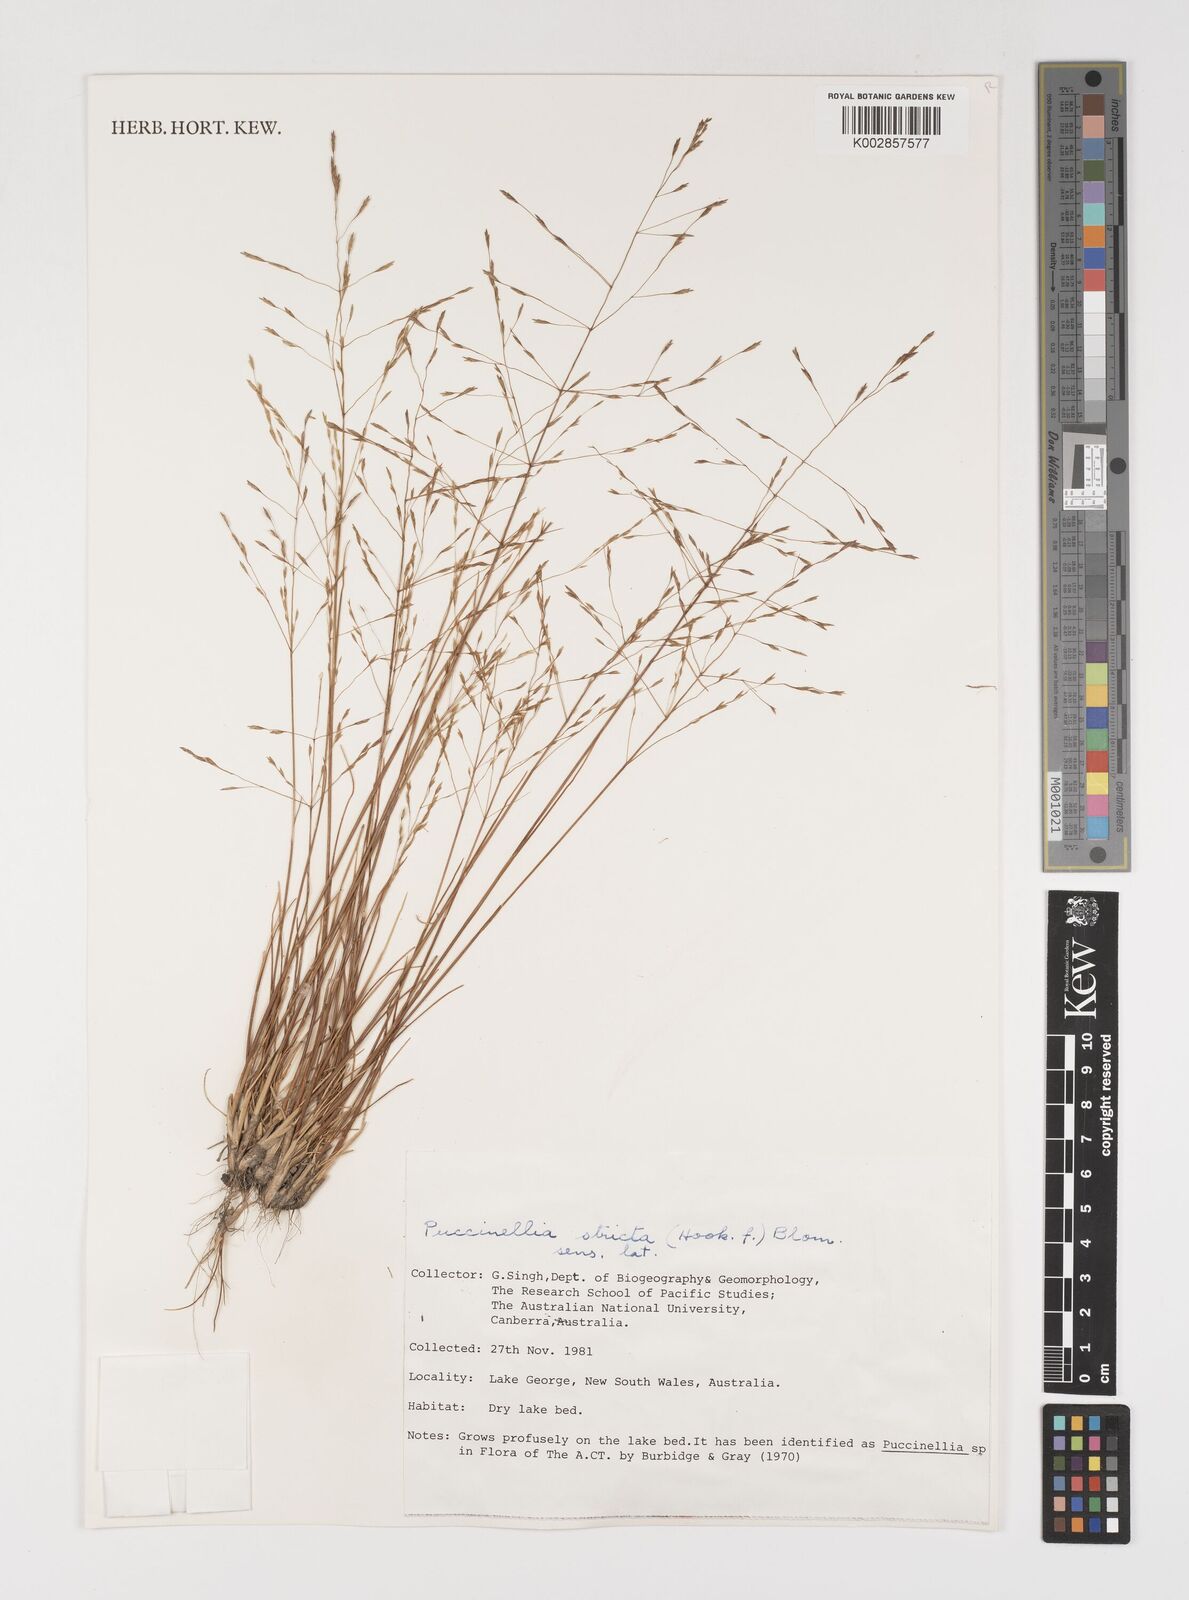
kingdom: Plantae
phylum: Tracheophyta
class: Liliopsida
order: Poales
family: Poaceae
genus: Puccinellia
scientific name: Puccinellia stricta
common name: Australian saltmarsh grass
